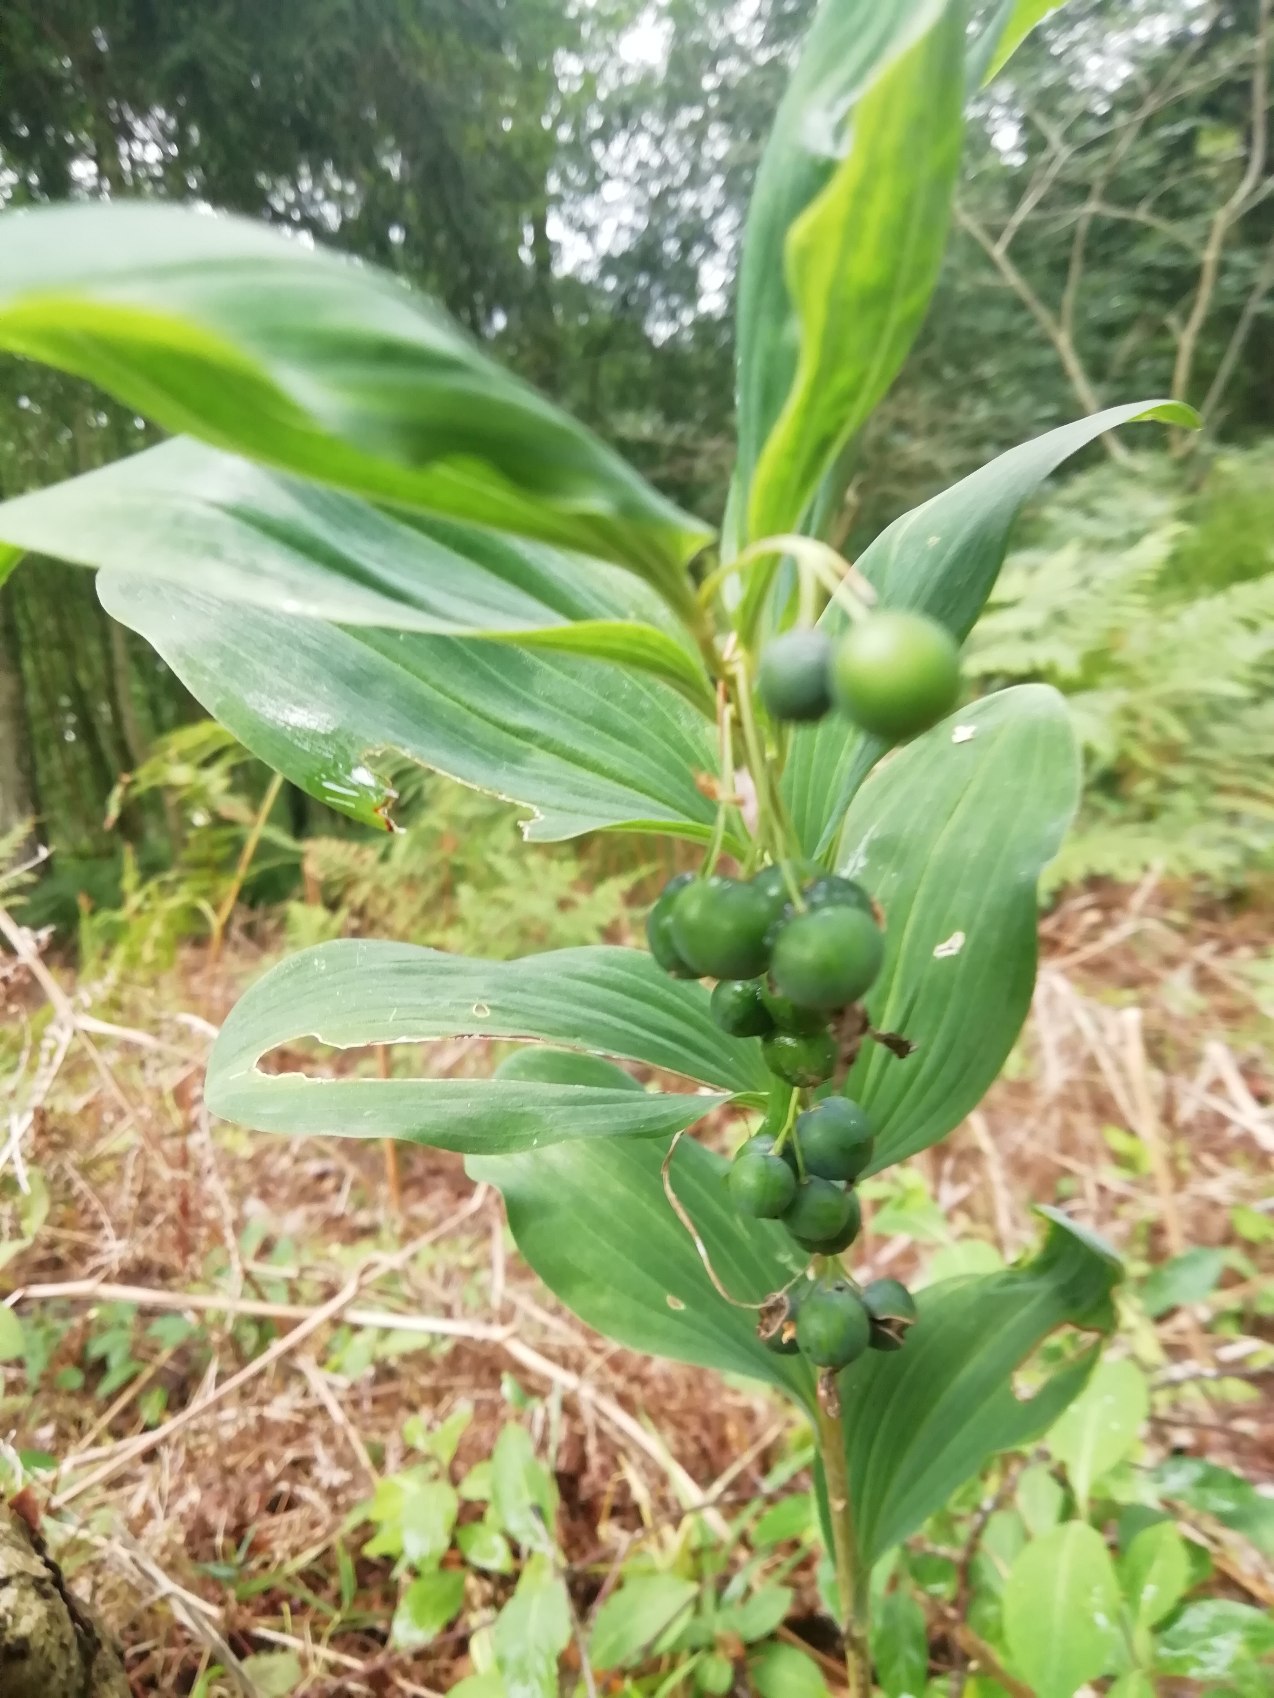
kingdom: Plantae
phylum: Tracheophyta
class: Liliopsida
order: Asparagales
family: Asparagaceae
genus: Polygonatum
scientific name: Polygonatum multiflorum
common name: Stor konval
